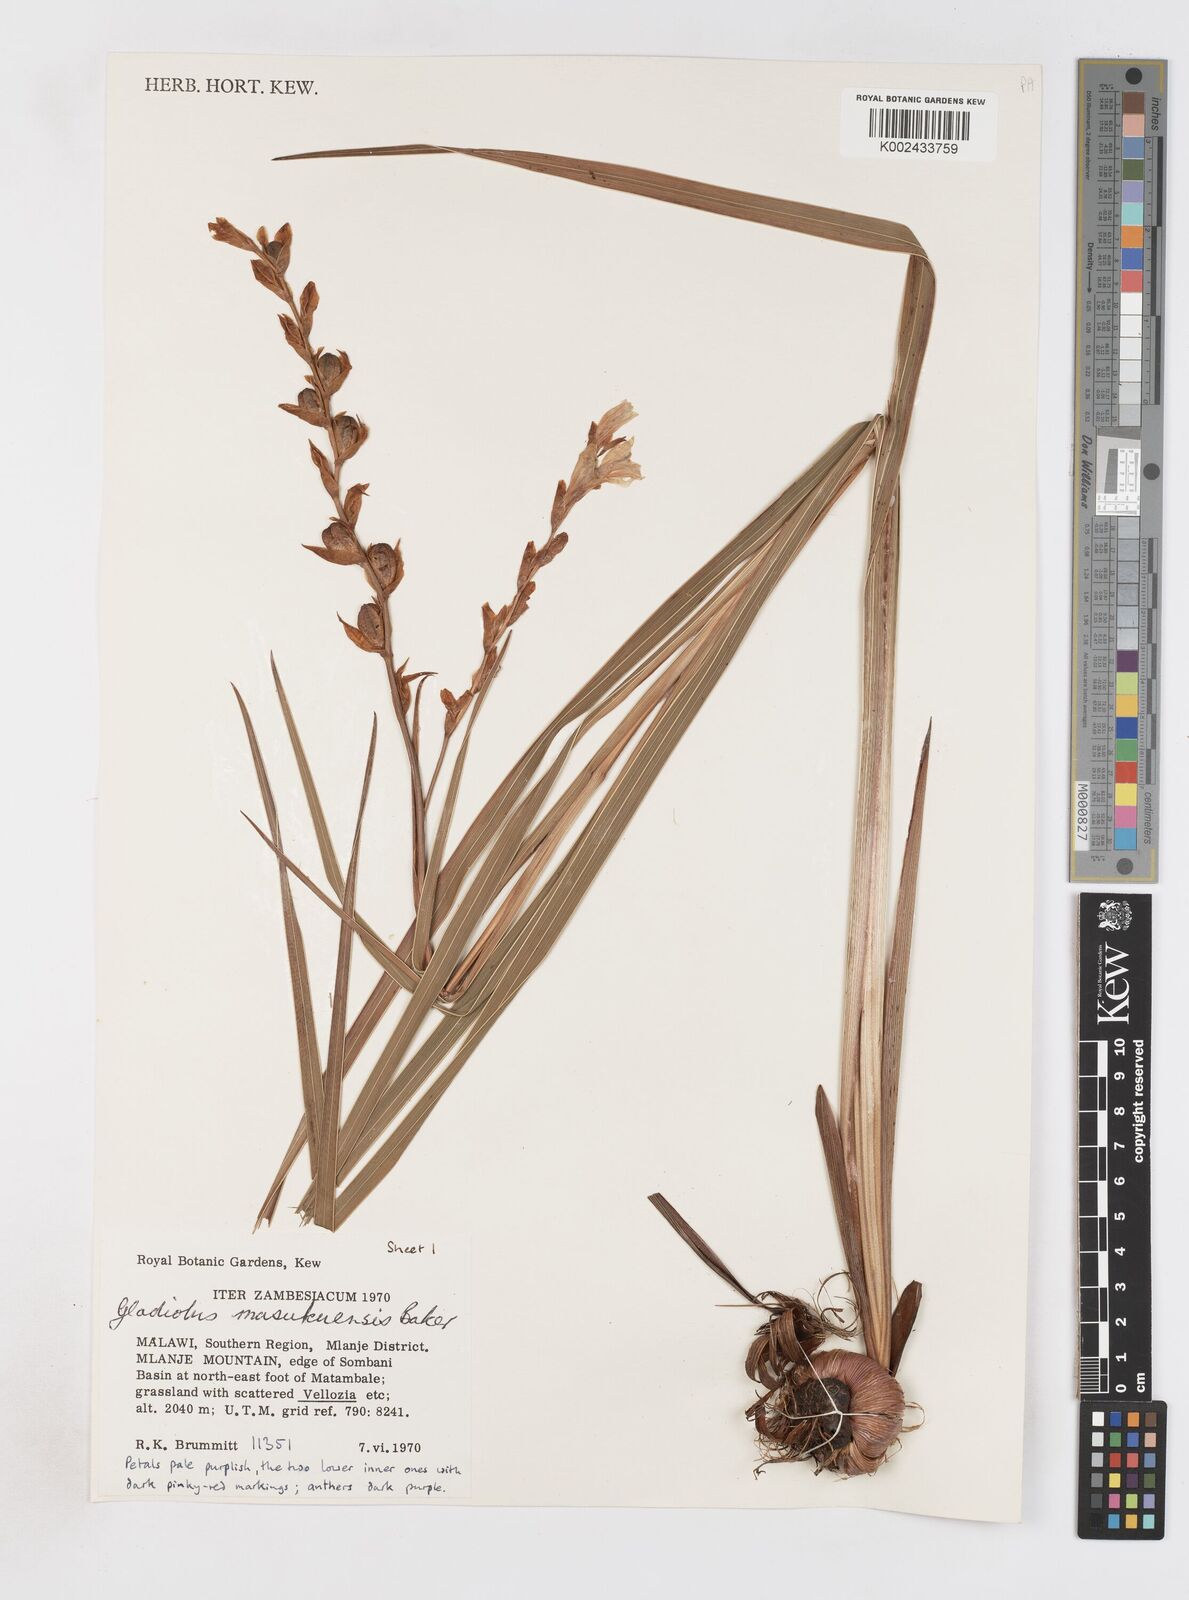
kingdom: Plantae
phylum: Tracheophyta
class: Liliopsida
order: Asparagales
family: Iridaceae
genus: Gladiolus
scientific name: Gladiolus crassifolius
